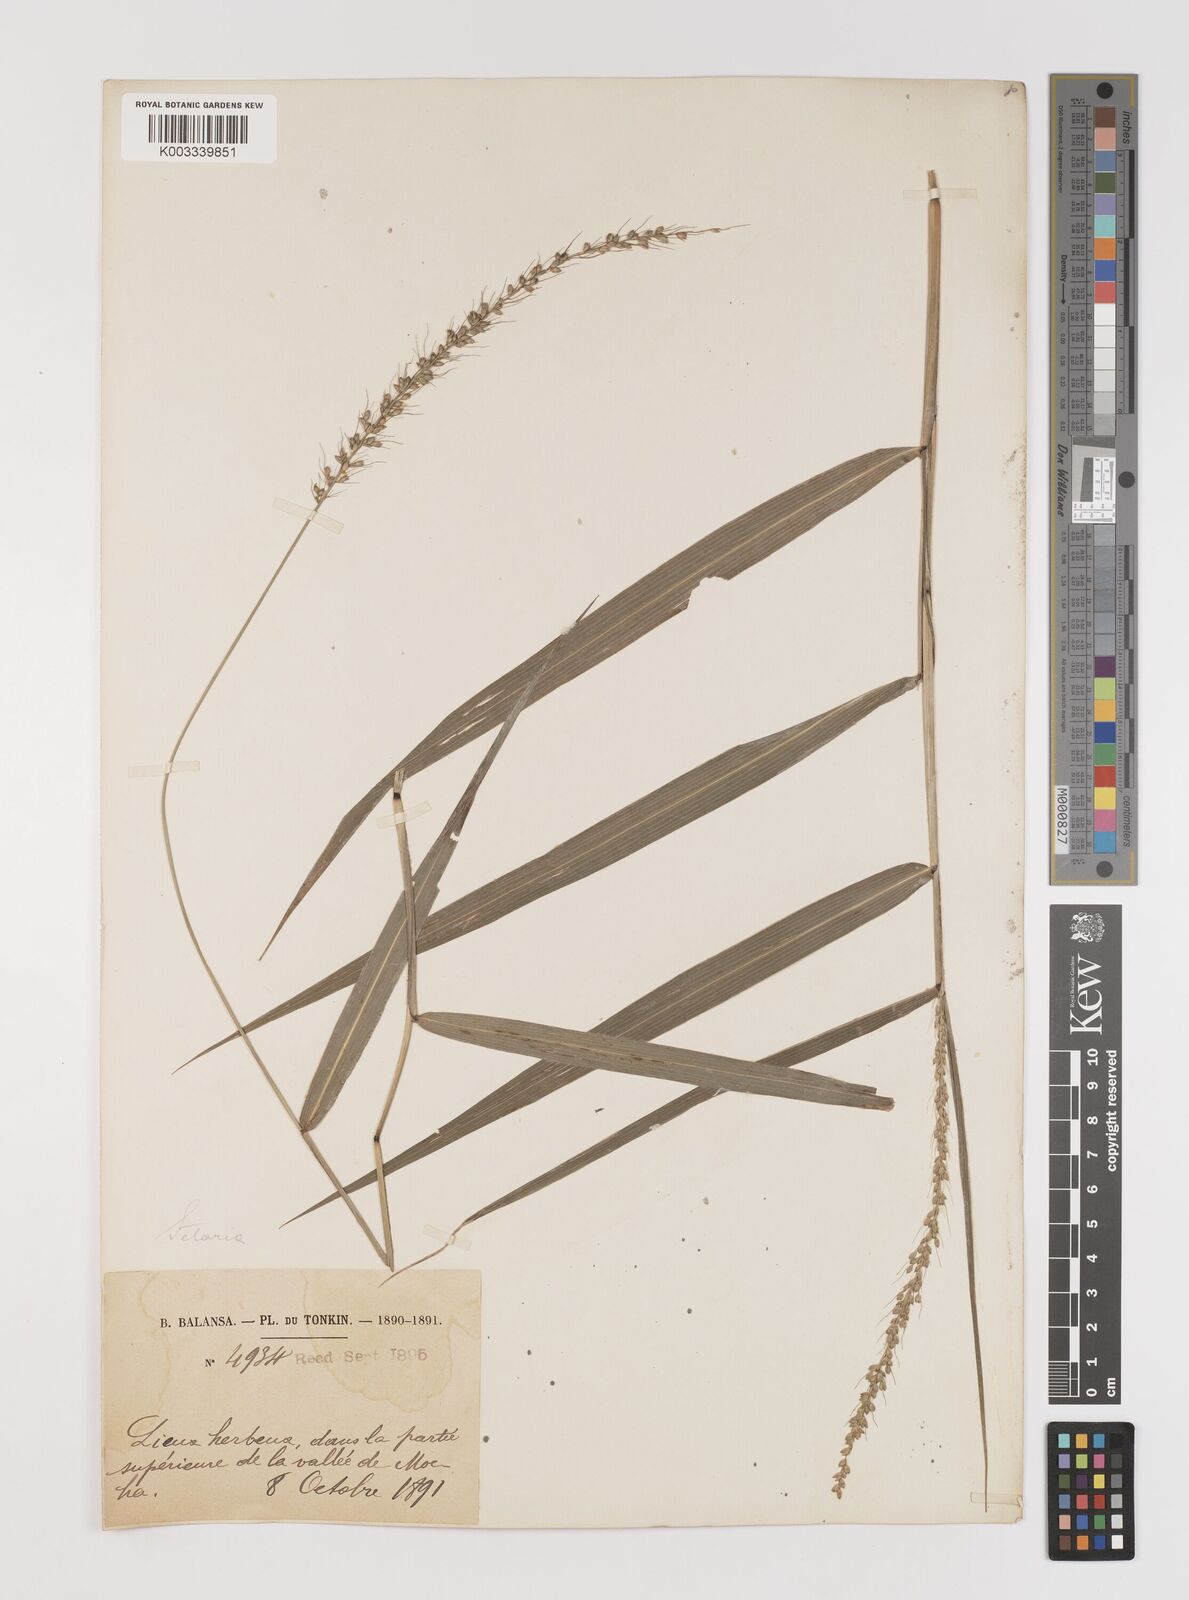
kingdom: Plantae
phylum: Tracheophyta
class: Liliopsida
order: Poales
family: Poaceae
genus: Setaria
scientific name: Setaria forbesiana
